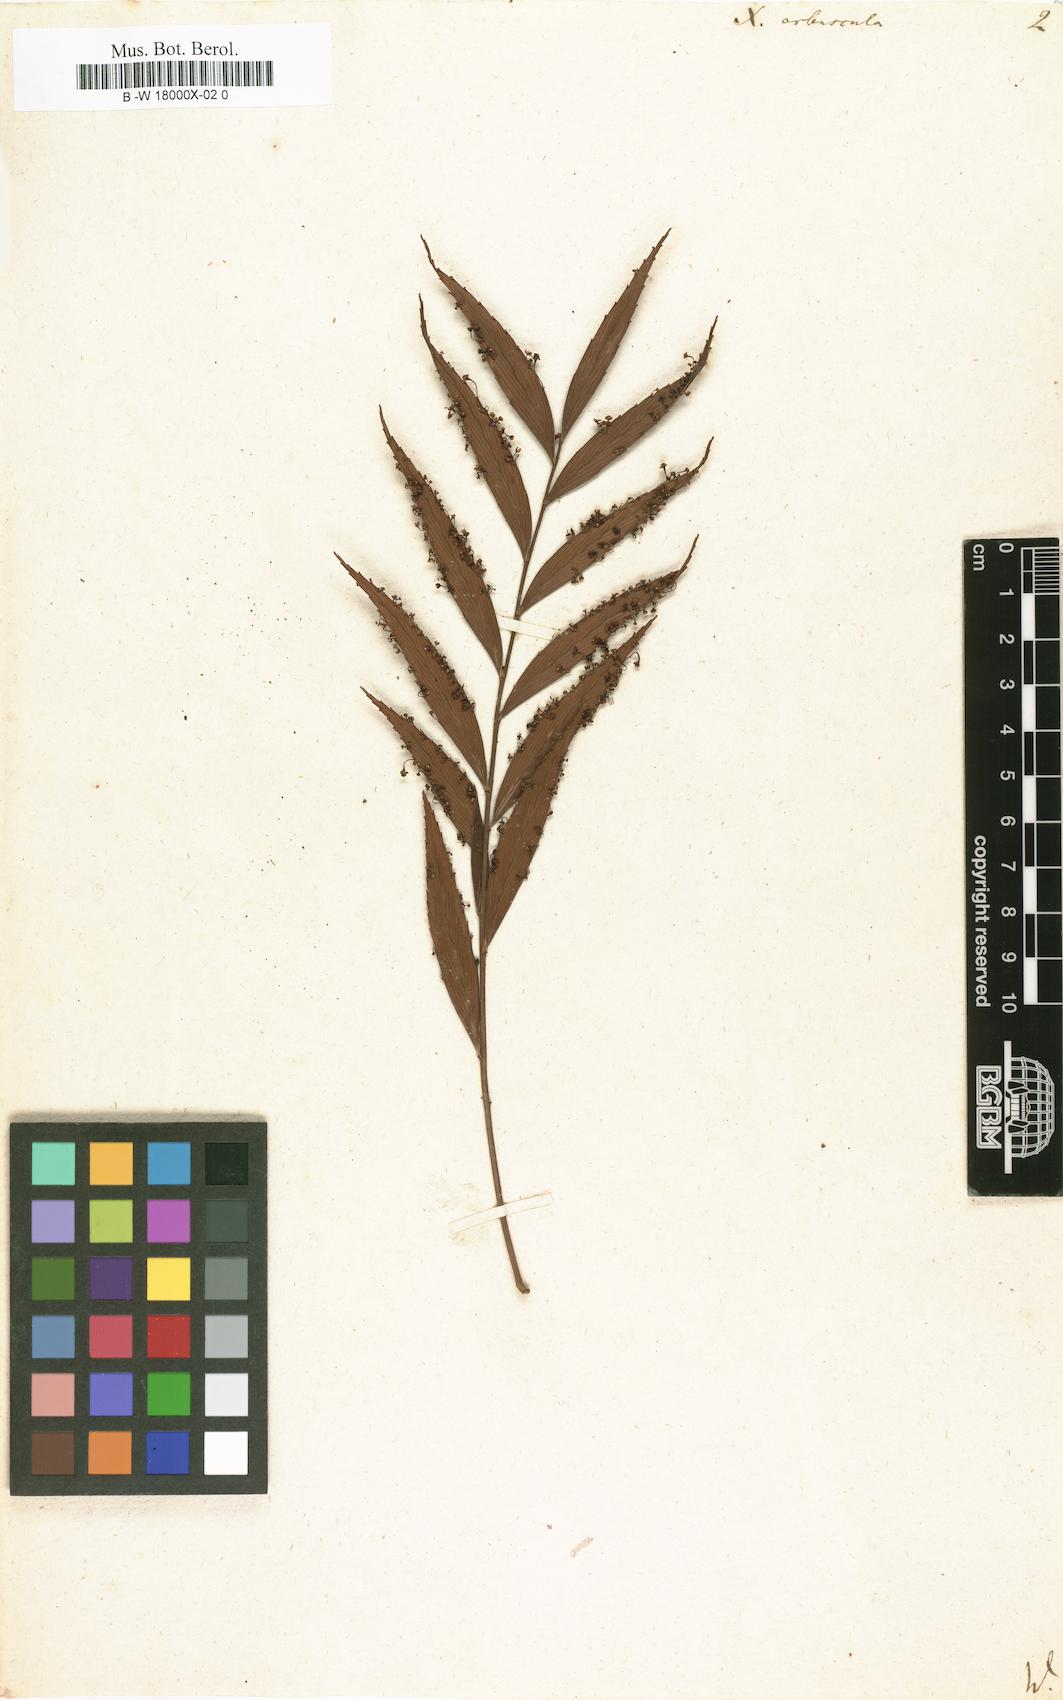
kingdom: Plantae
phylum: Tracheophyta
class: Magnoliopsida
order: Malpighiales
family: Phyllanthaceae
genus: Phyllanthus
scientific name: Phyllanthus arbuscula
